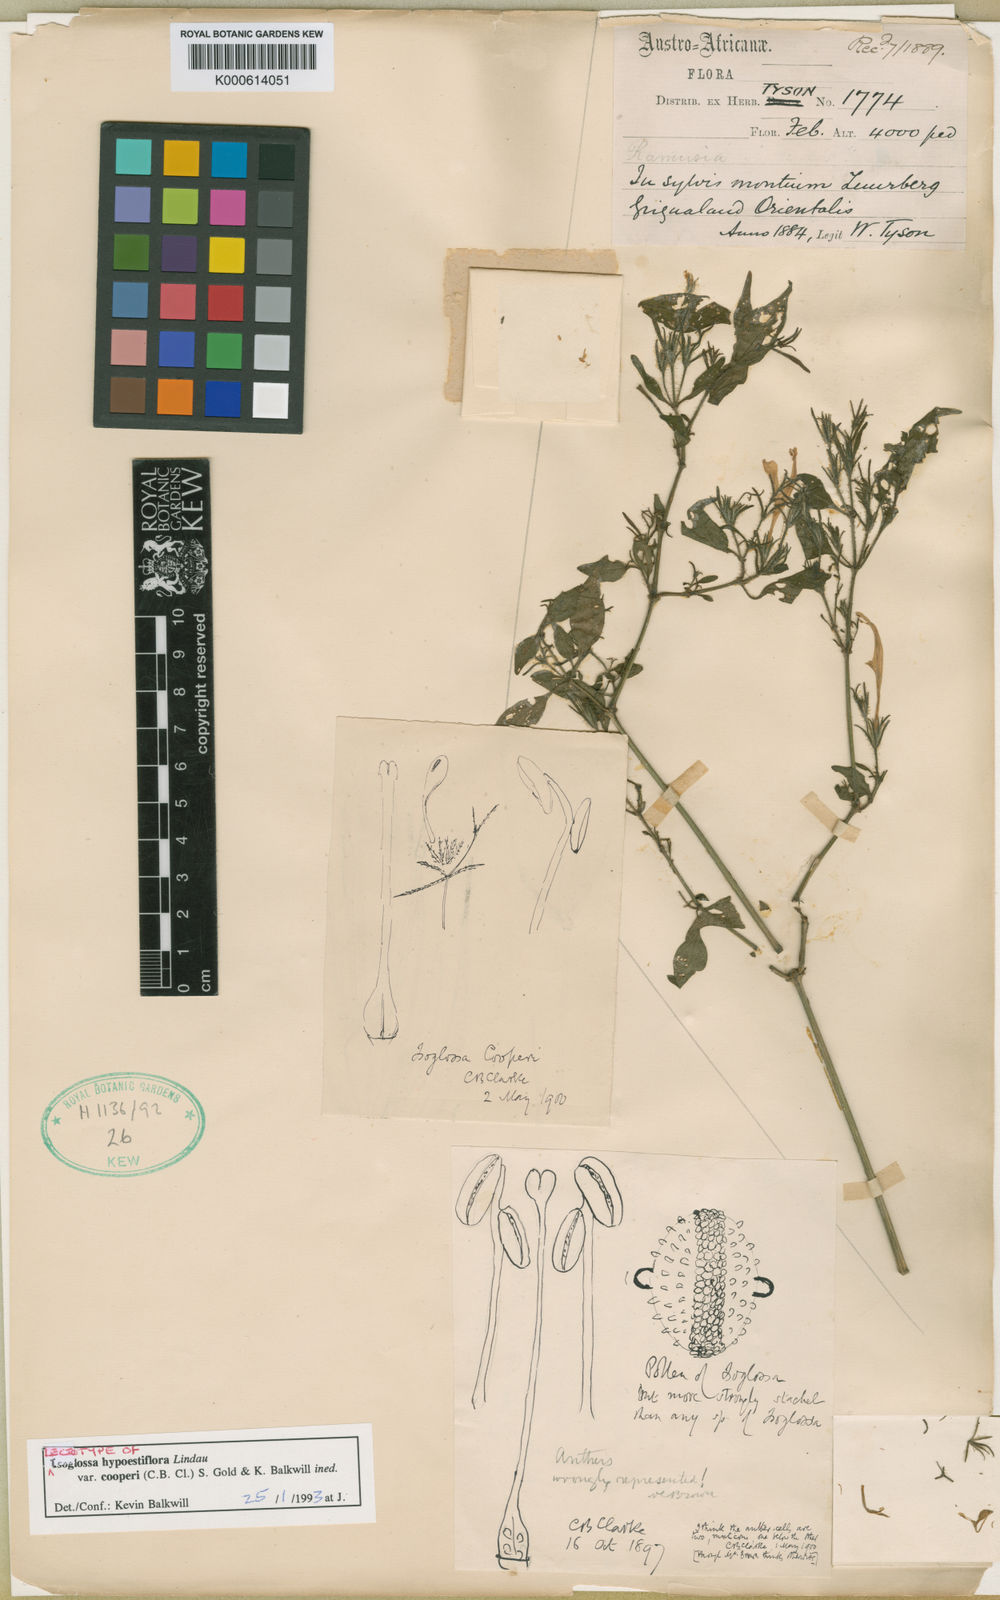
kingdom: Plantae
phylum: Tracheophyta
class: Magnoliopsida
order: Lamiales
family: Acanthaceae
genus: Isoglossa
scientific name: Isoglossa hypoestiflora
